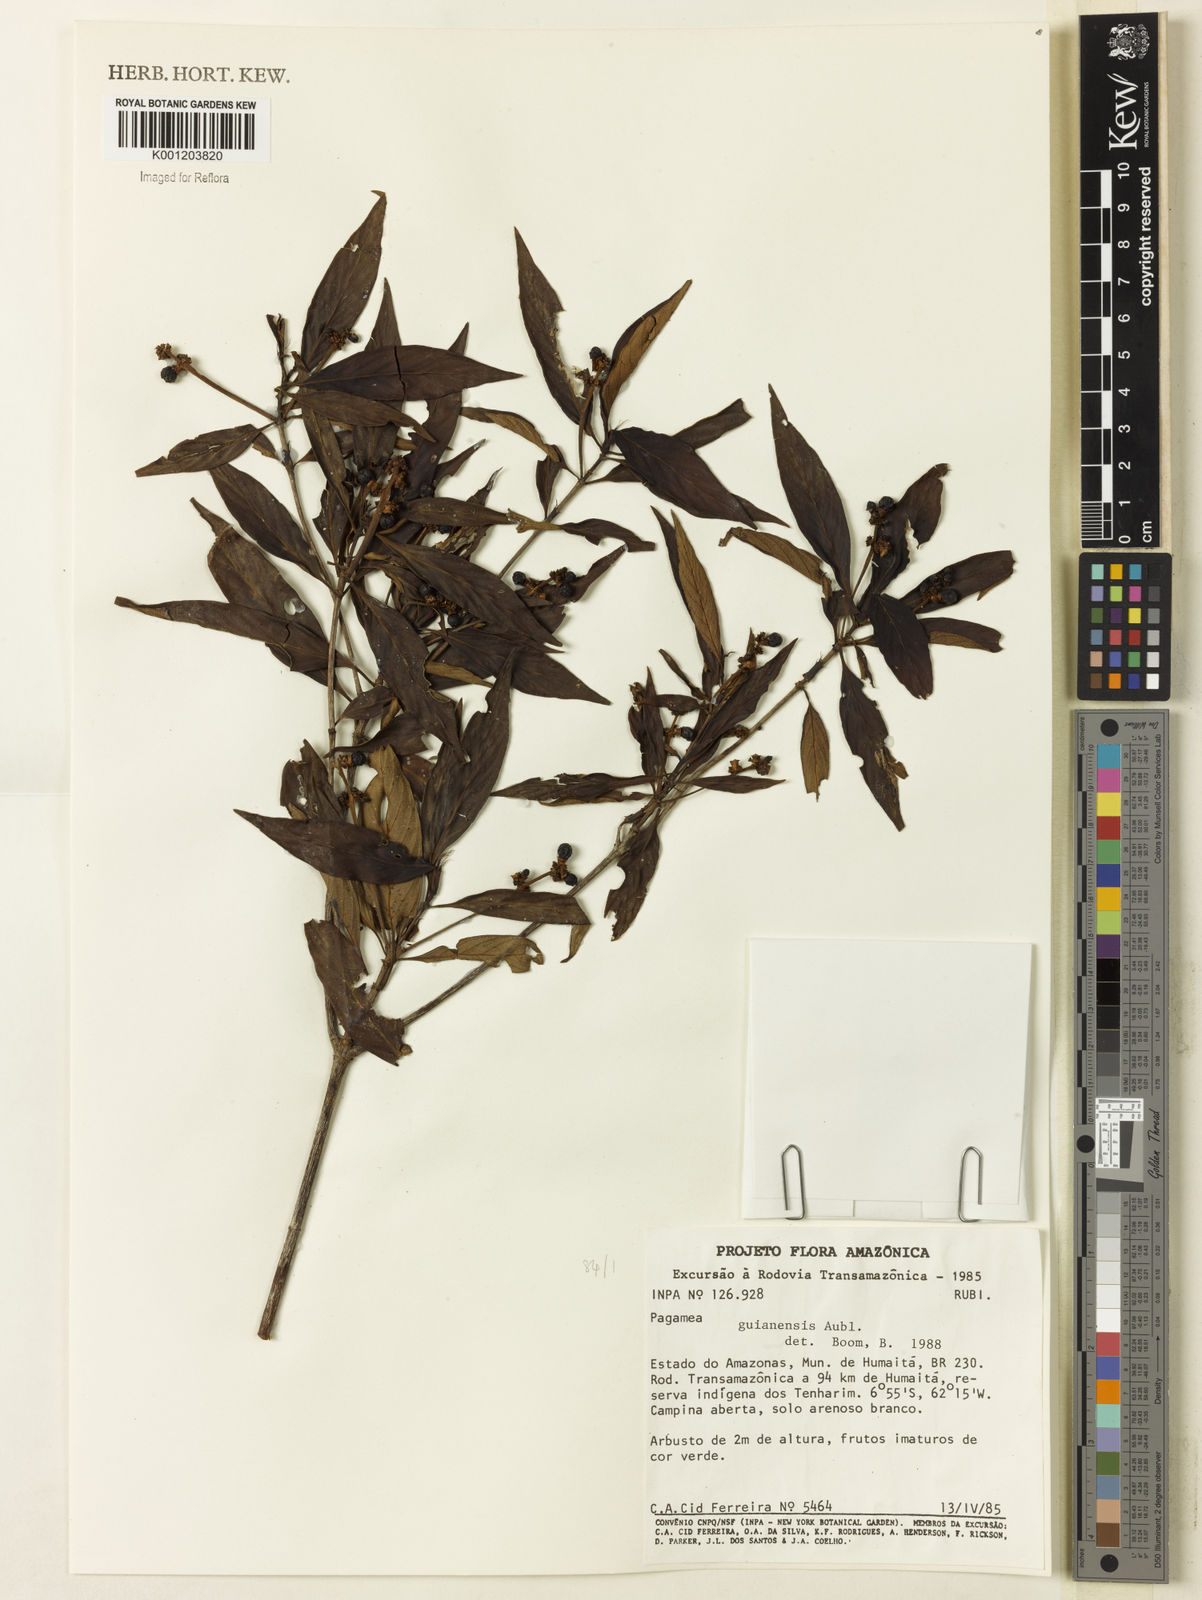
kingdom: Plantae
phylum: Tracheophyta
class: Magnoliopsida
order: Gentianales
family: Rubiaceae
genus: Pagamea
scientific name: Pagamea guianensis
